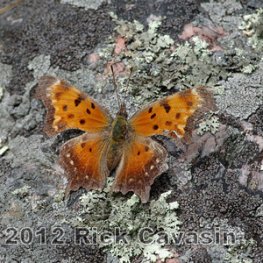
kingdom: Animalia
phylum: Arthropoda
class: Insecta
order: Lepidoptera
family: Nymphalidae
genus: Polygonia
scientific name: Polygonia progne
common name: Gray Comma
